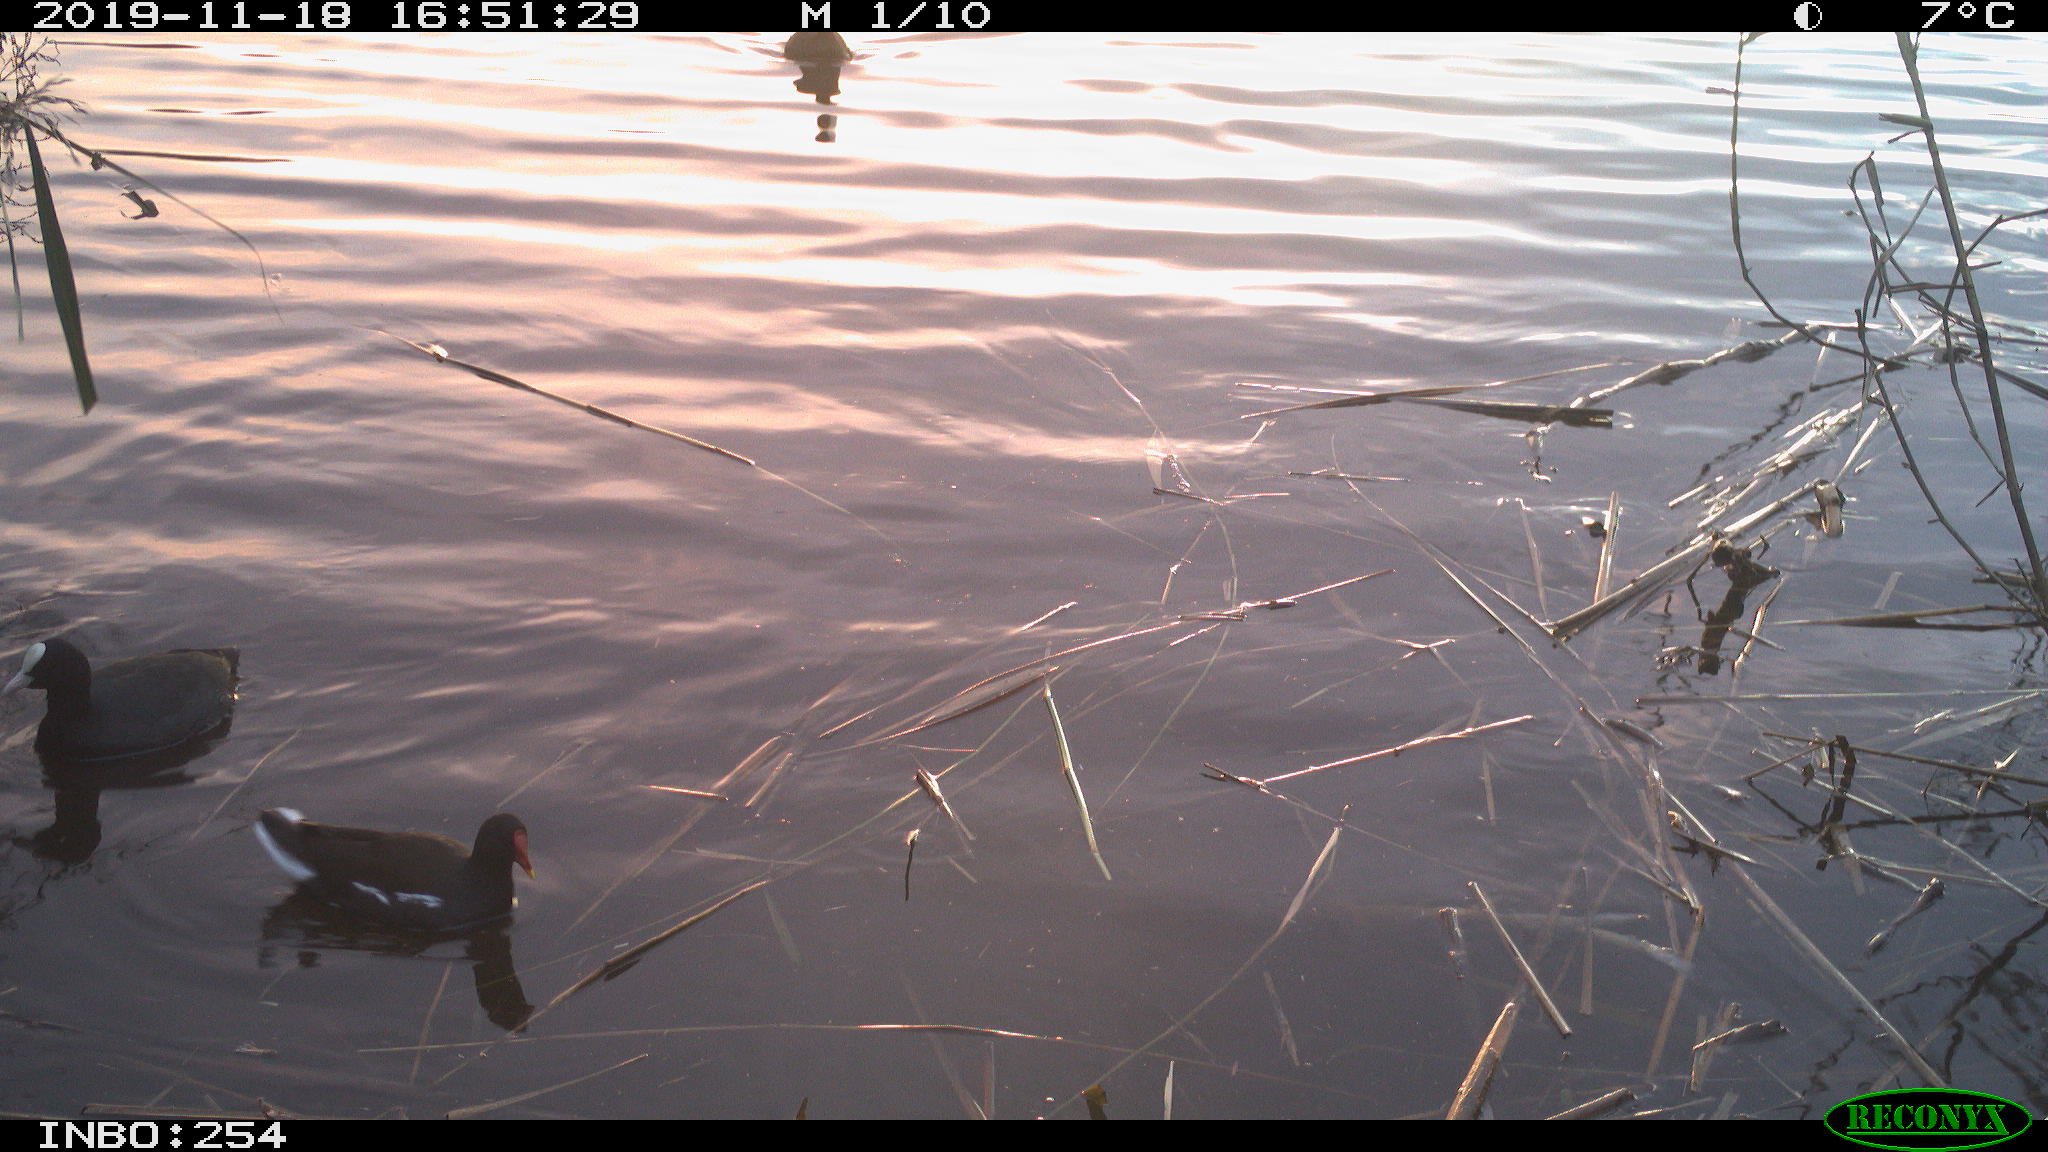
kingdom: Animalia
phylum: Chordata
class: Aves
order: Gruiformes
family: Rallidae
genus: Gallinula
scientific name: Gallinula chloropus
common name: Common moorhen
